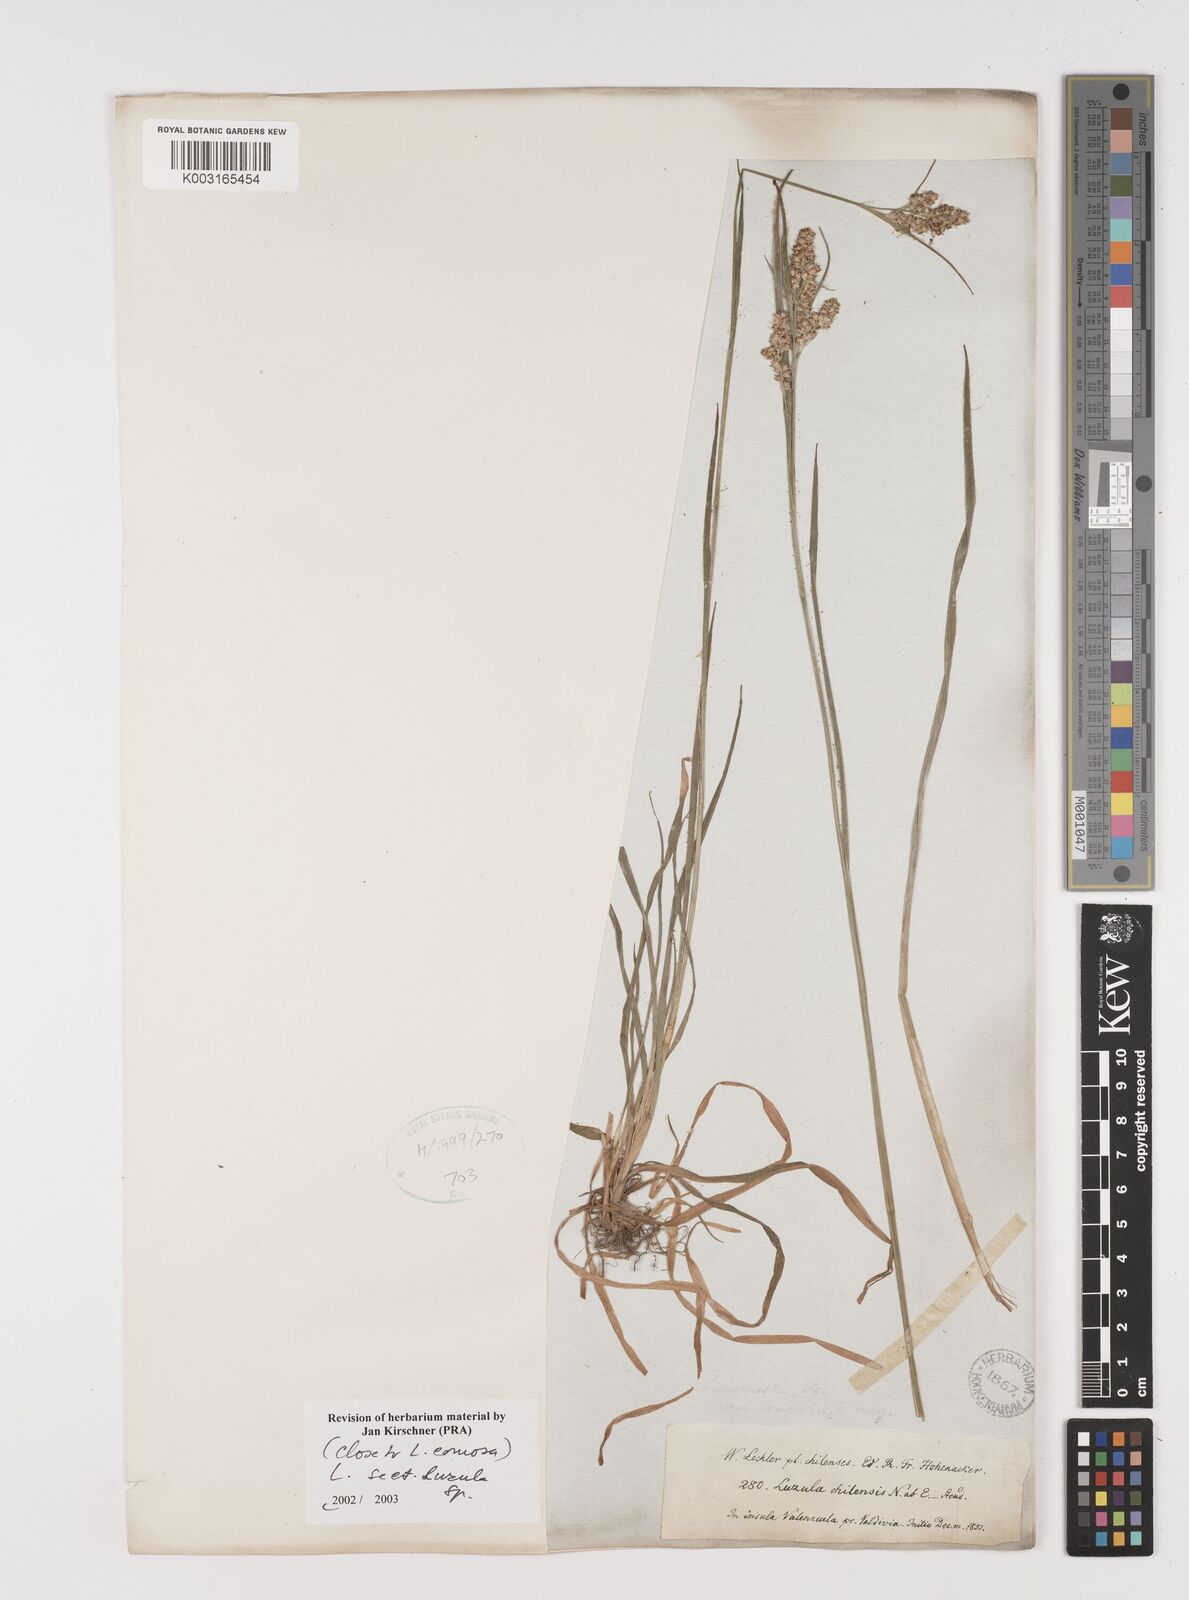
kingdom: Plantae
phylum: Tracheophyta
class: Liliopsida
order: Poales
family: Juncaceae
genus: Luzula
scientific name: Luzula
